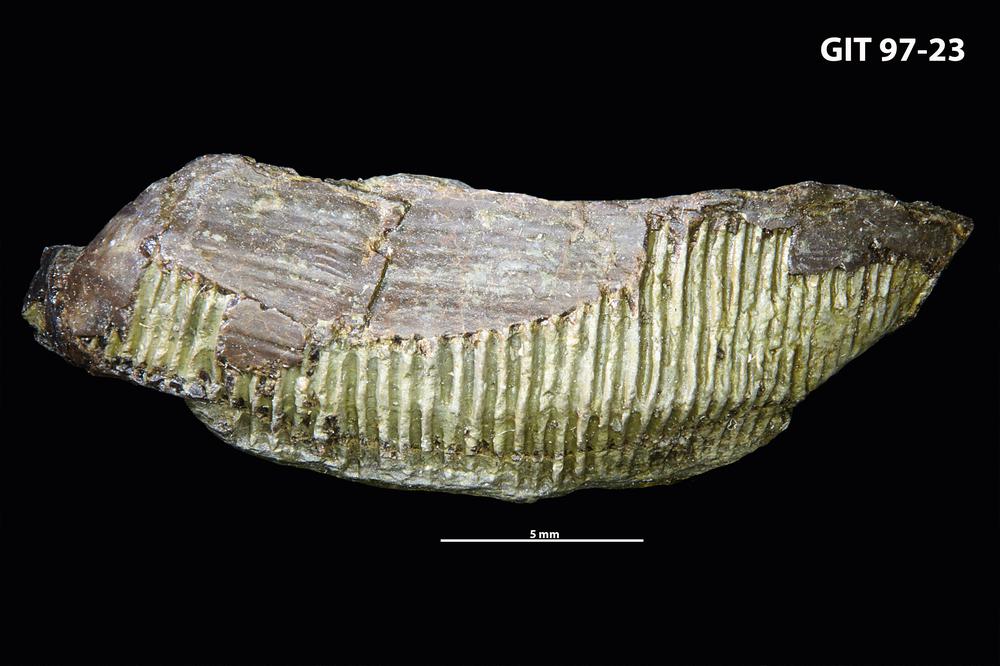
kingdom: Animalia
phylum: Chordata
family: Holonematidae
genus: Holonema
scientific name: Holonema
